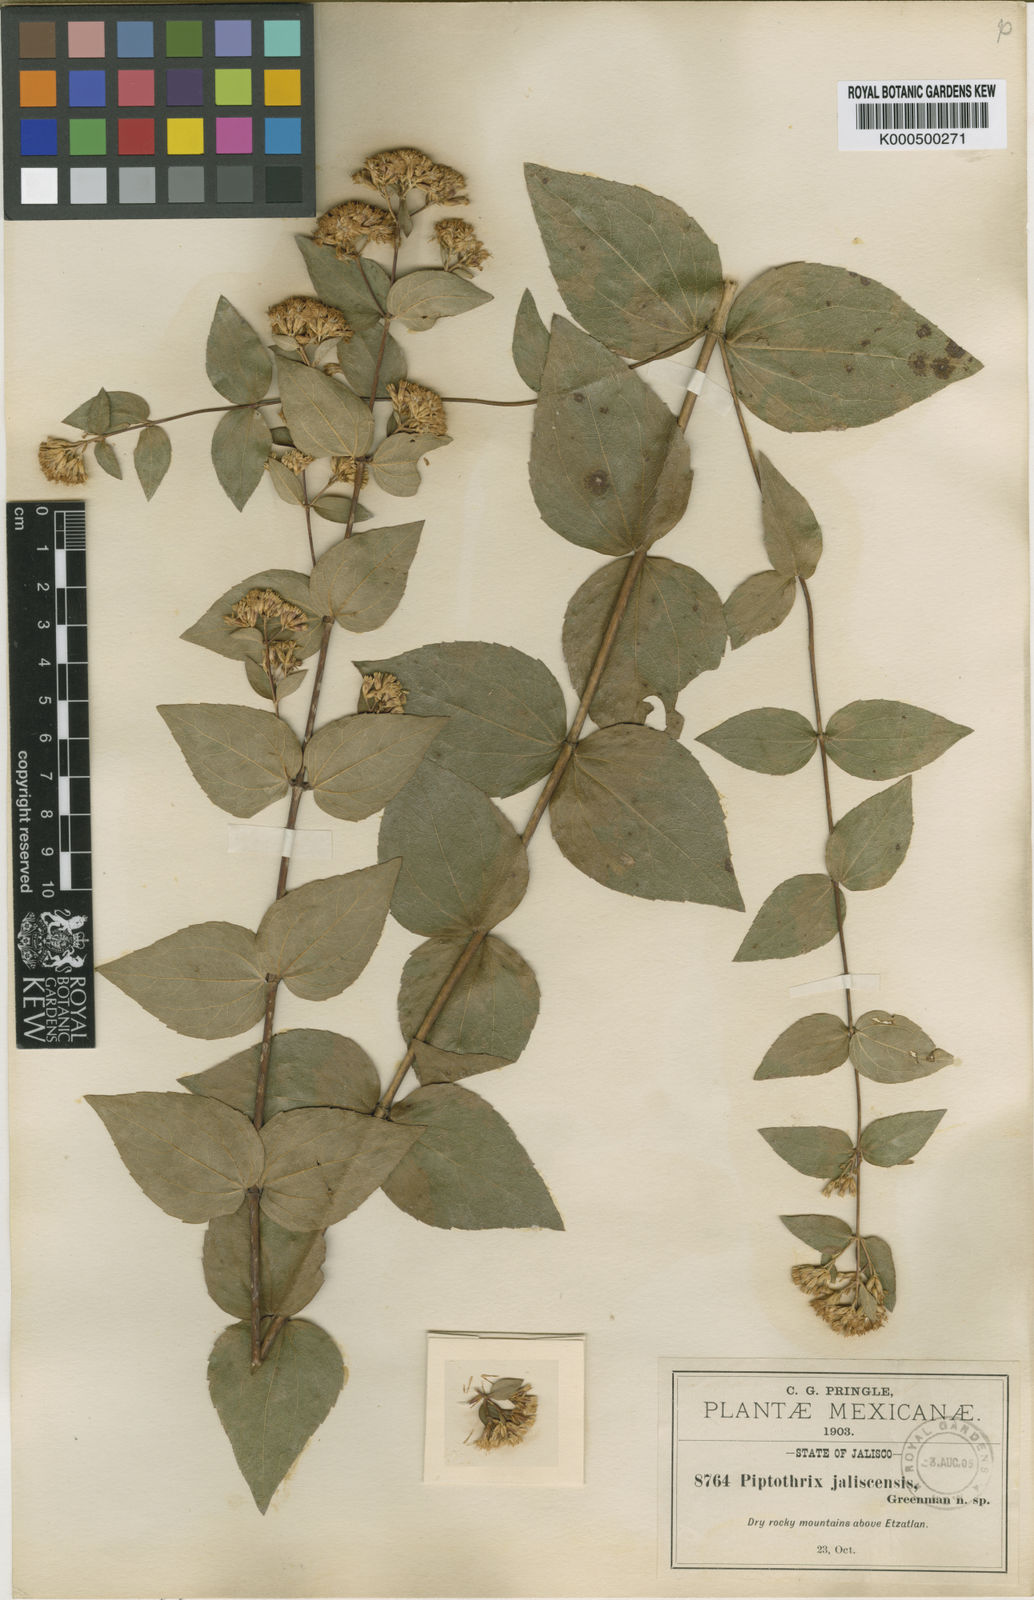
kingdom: Plantae
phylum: Tracheophyta
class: Magnoliopsida
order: Asterales
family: Asteraceae
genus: Ageratina
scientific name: Ageratina
